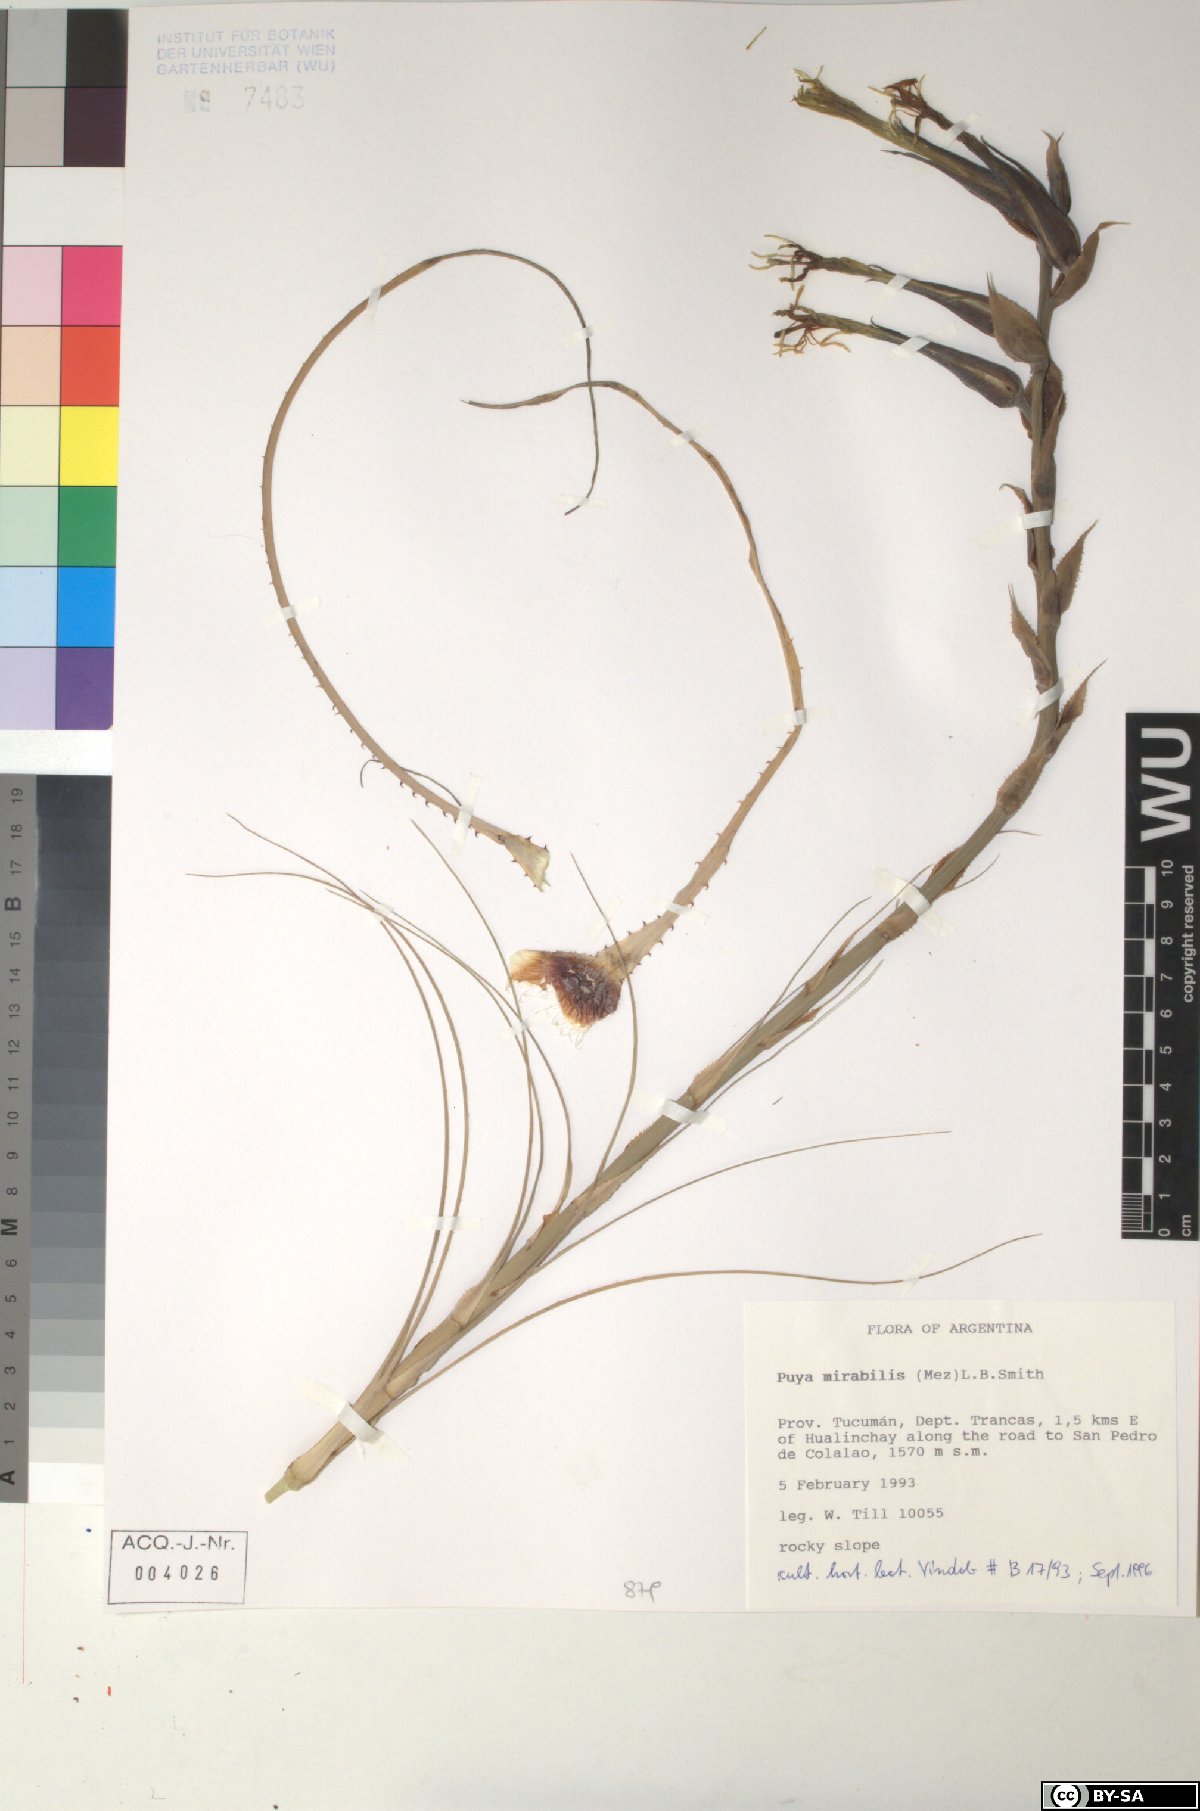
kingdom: Plantae
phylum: Tracheophyta
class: Liliopsida
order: Poales
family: Bromeliaceae
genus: Puya
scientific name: Puya mirabilis
